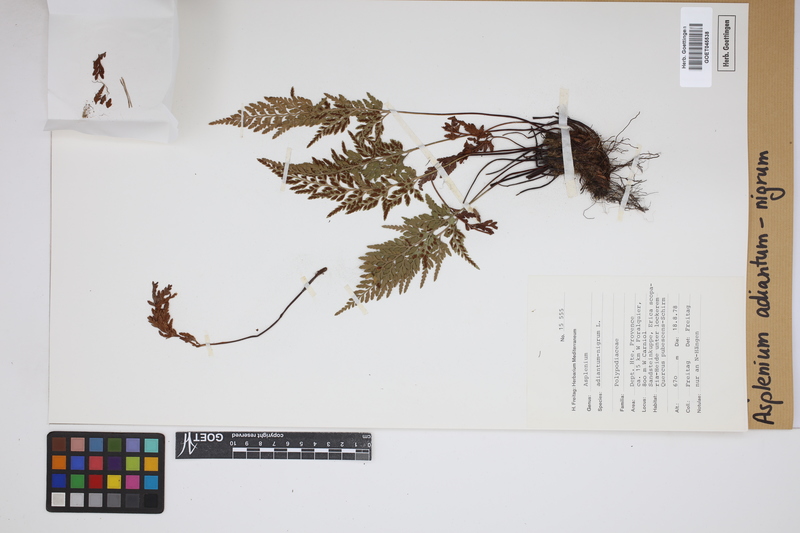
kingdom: Plantae
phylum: Tracheophyta
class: Polypodiopsida
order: Polypodiales
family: Aspleniaceae
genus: Asplenium
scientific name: Asplenium adiantum-nigrum
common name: Black spleenwort
